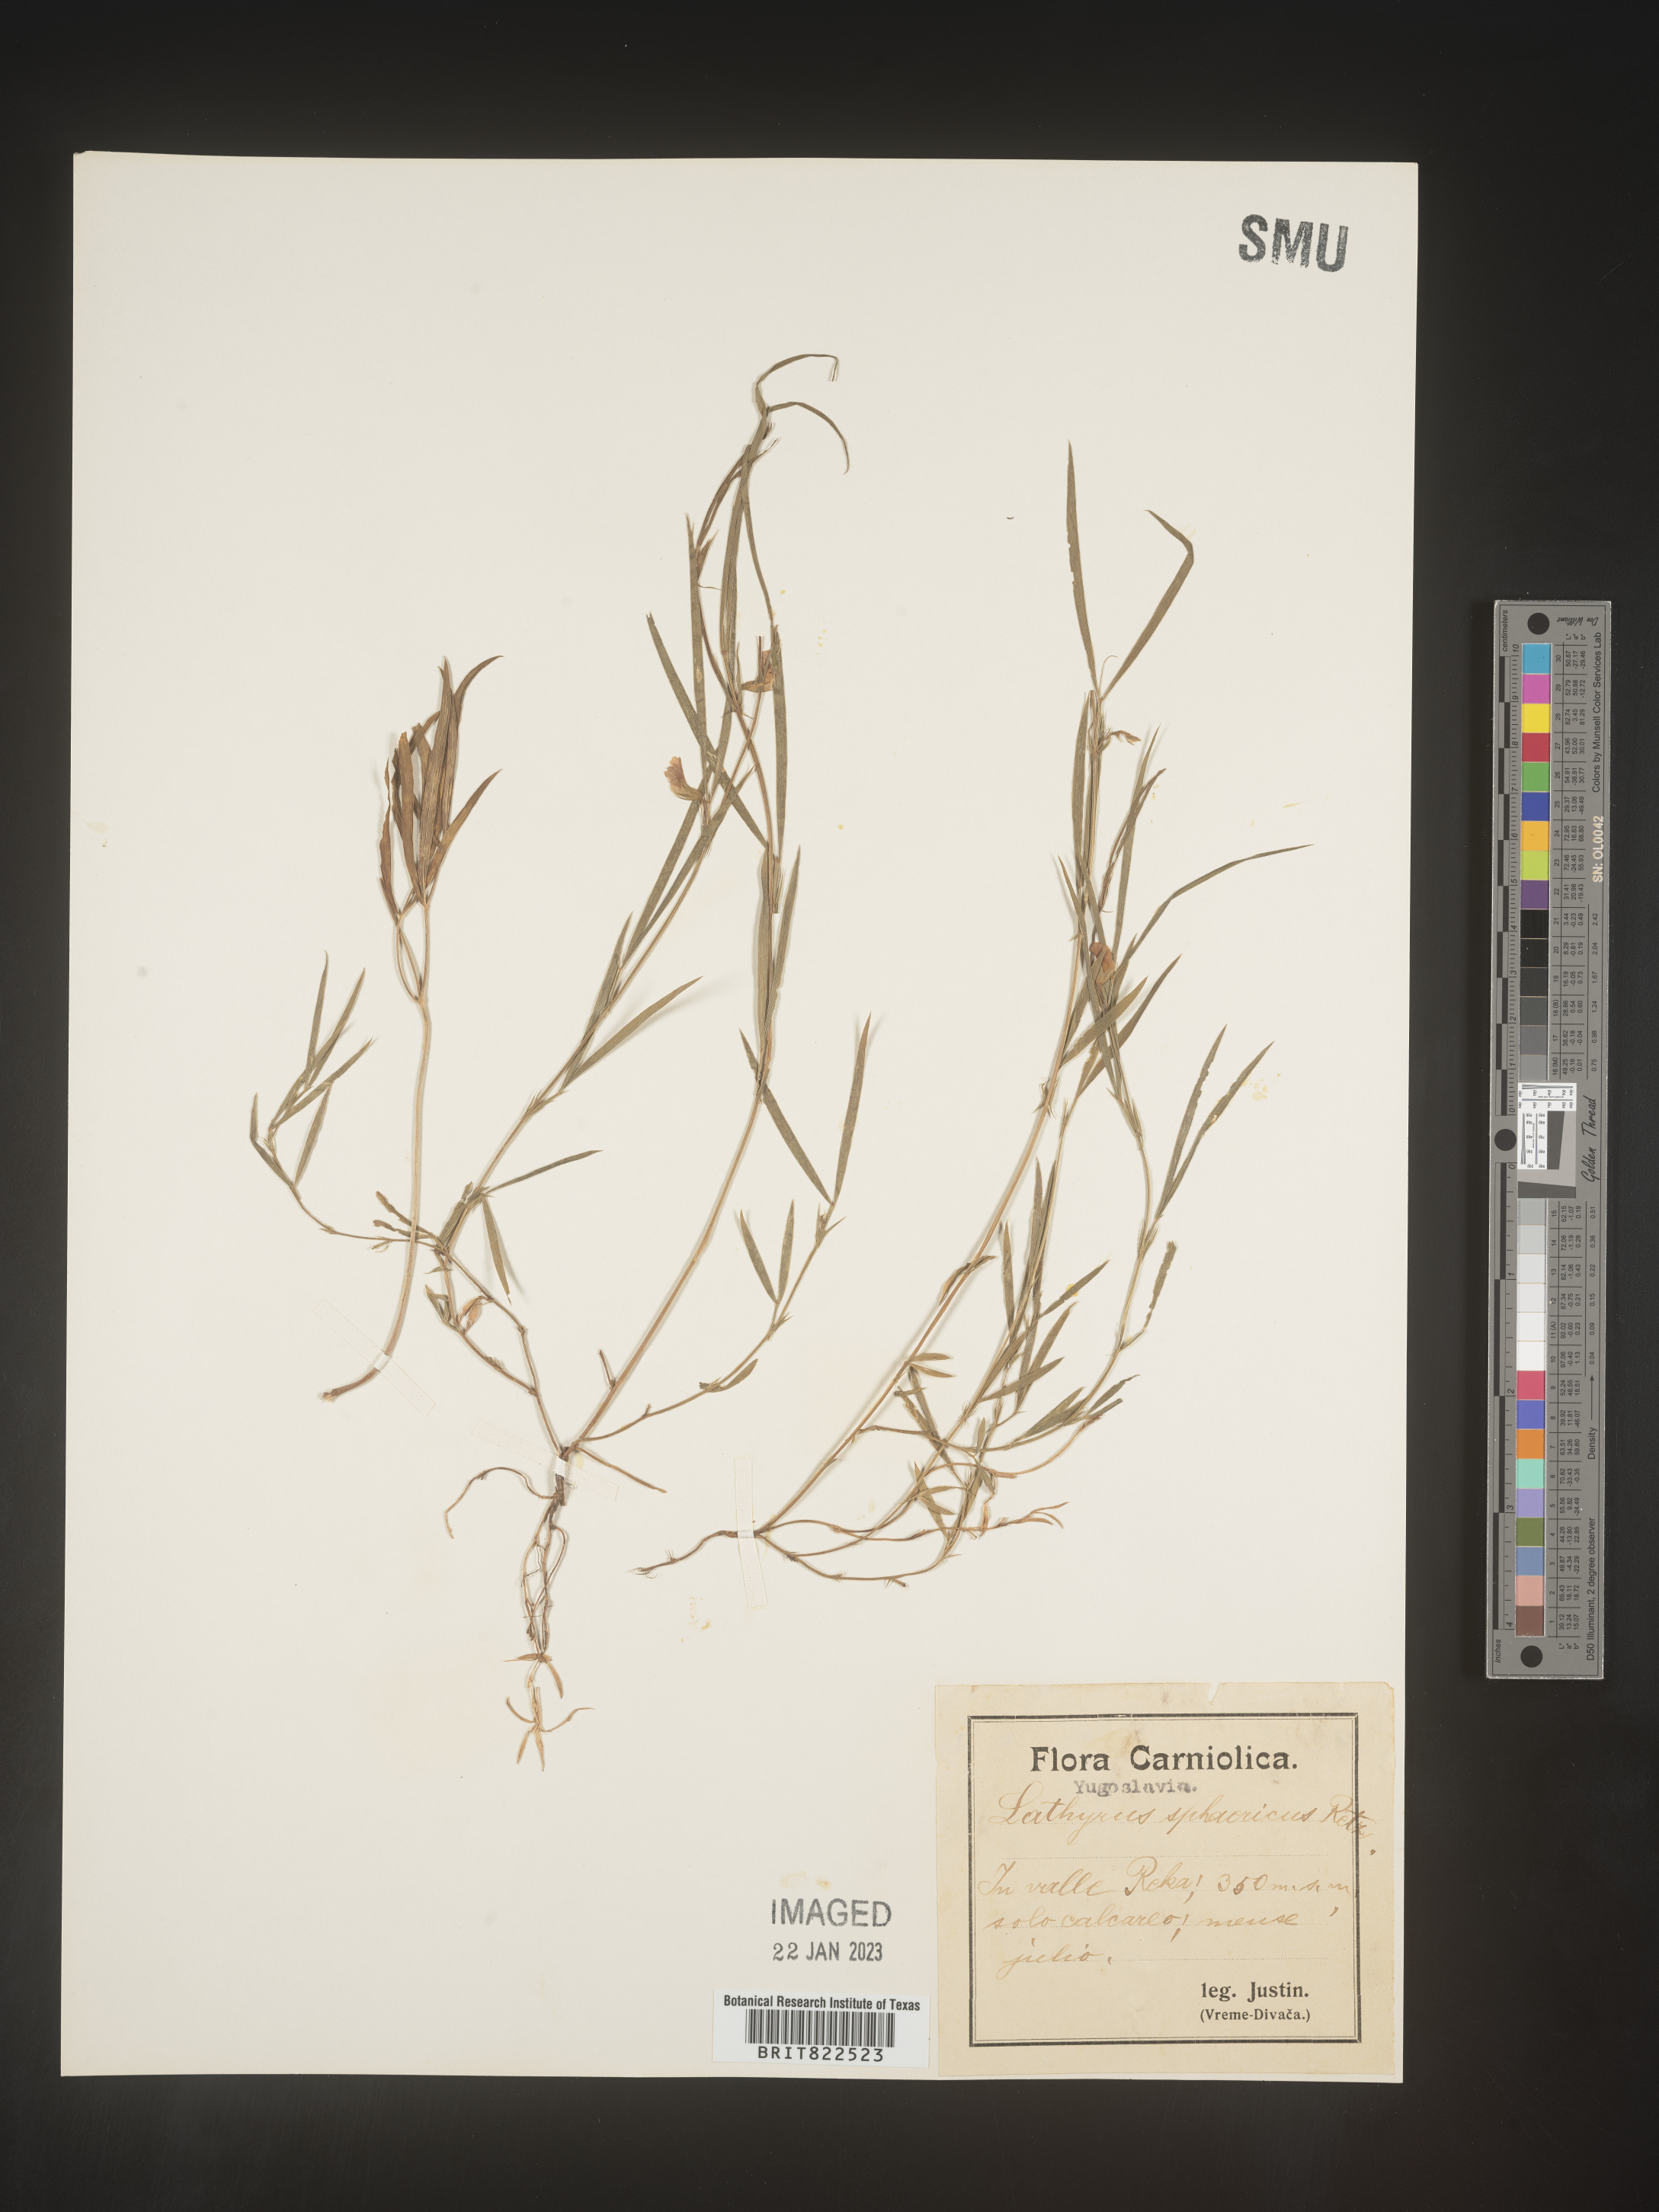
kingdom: Plantae
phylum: Tracheophyta
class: Magnoliopsida
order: Fabales
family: Fabaceae
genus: Lathyrus
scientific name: Lathyrus
